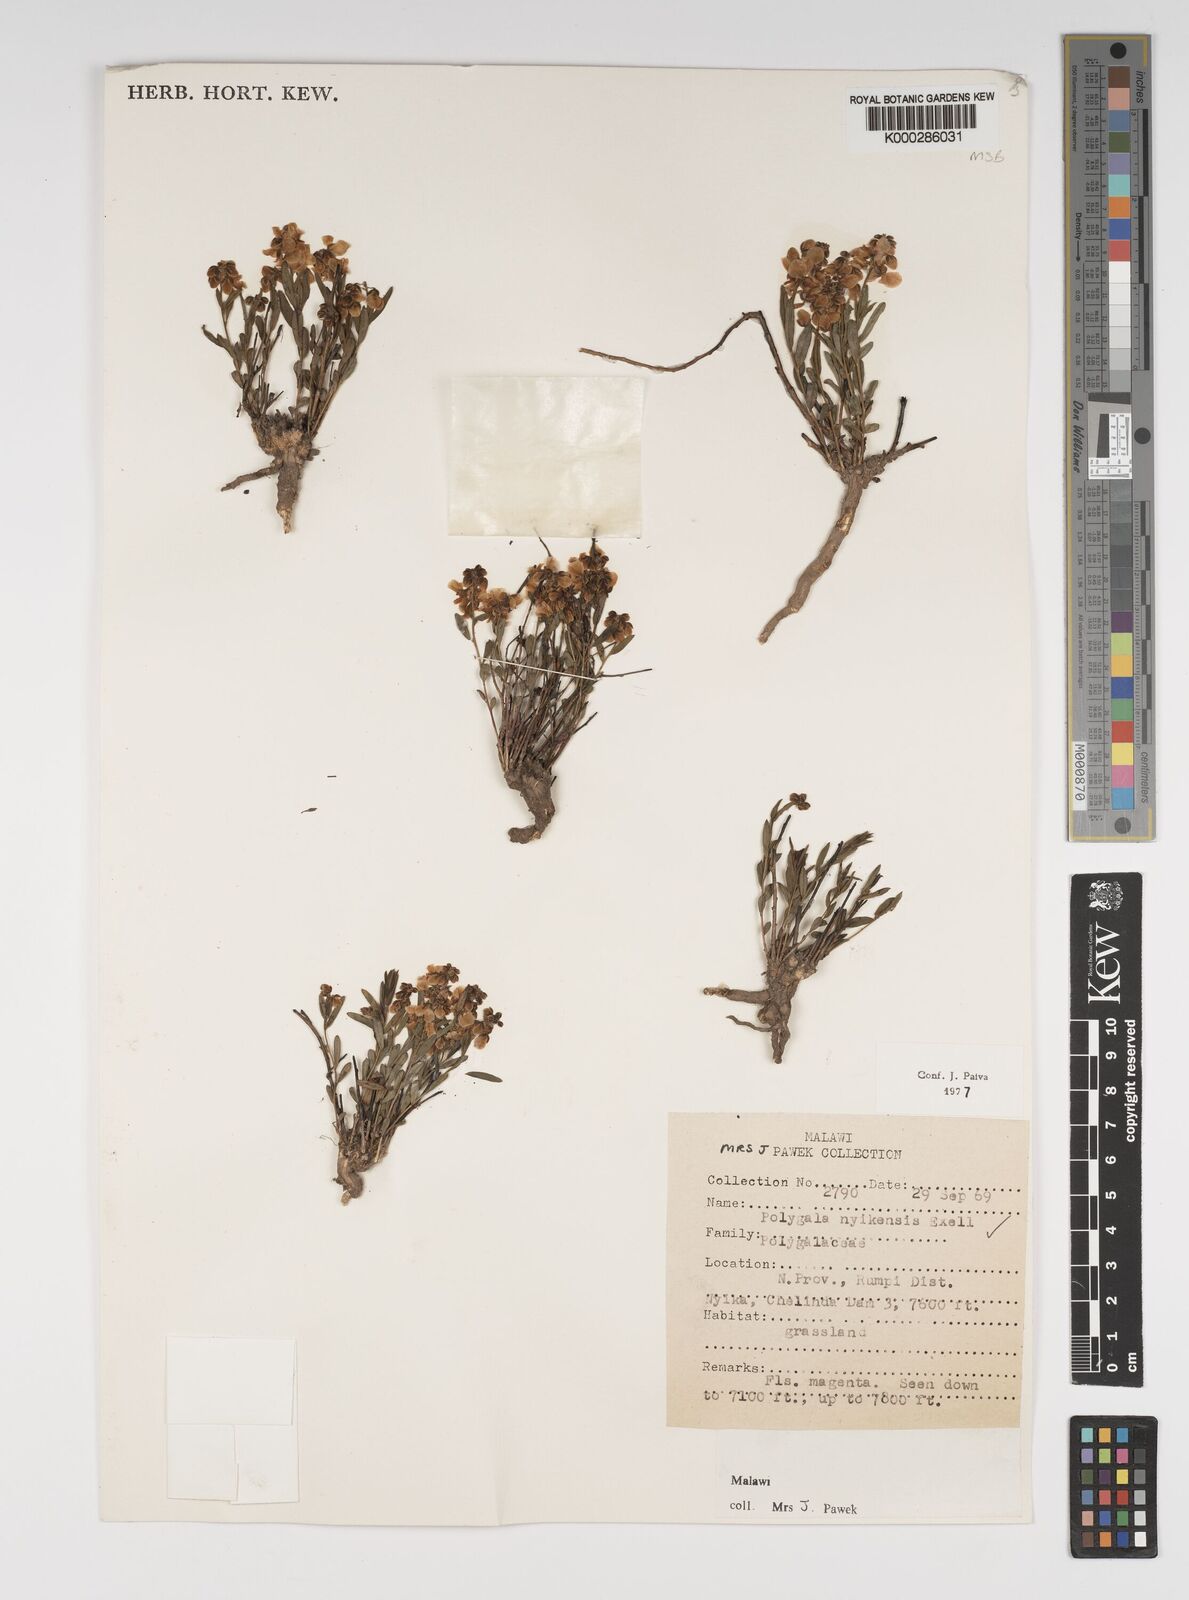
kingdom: Plantae
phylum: Tracheophyta
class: Magnoliopsida
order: Fabales
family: Polygalaceae
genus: Polygala
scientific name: Polygala nyikensis
